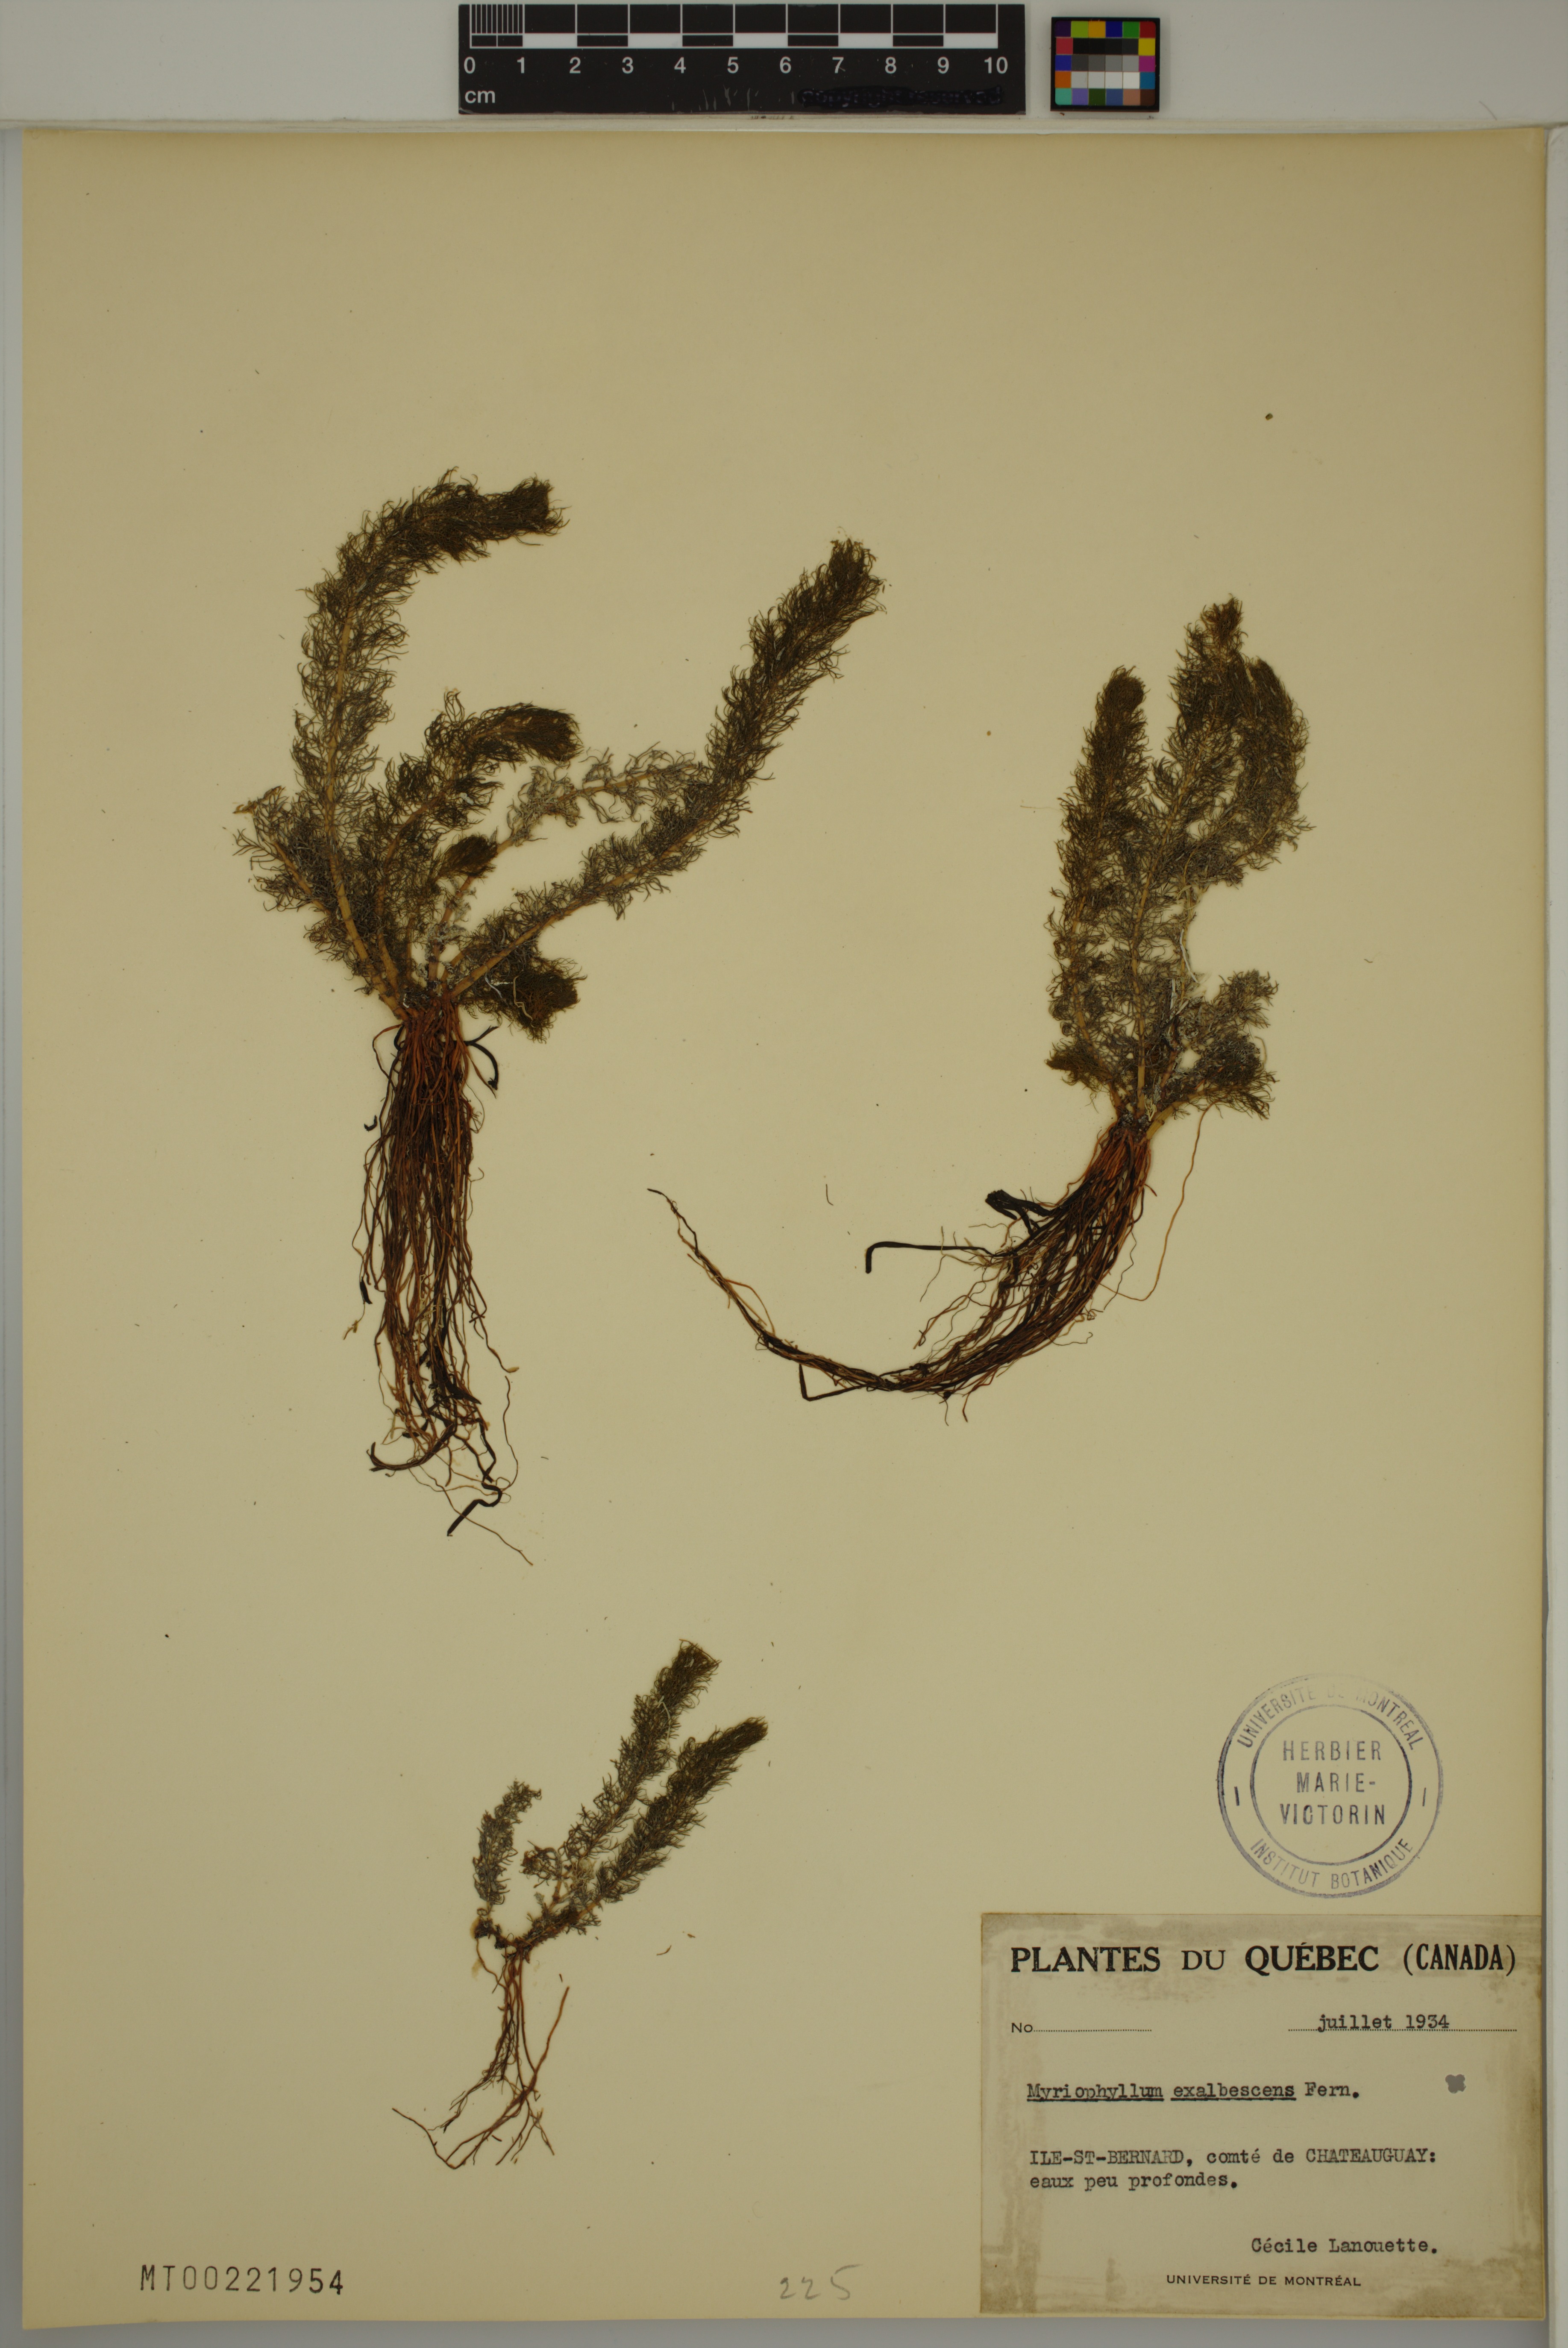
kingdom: Plantae
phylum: Tracheophyta
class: Magnoliopsida
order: Saxifragales
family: Haloragaceae
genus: Myriophyllum
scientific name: Myriophyllum sibiricum
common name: Siberian water-milfoil
